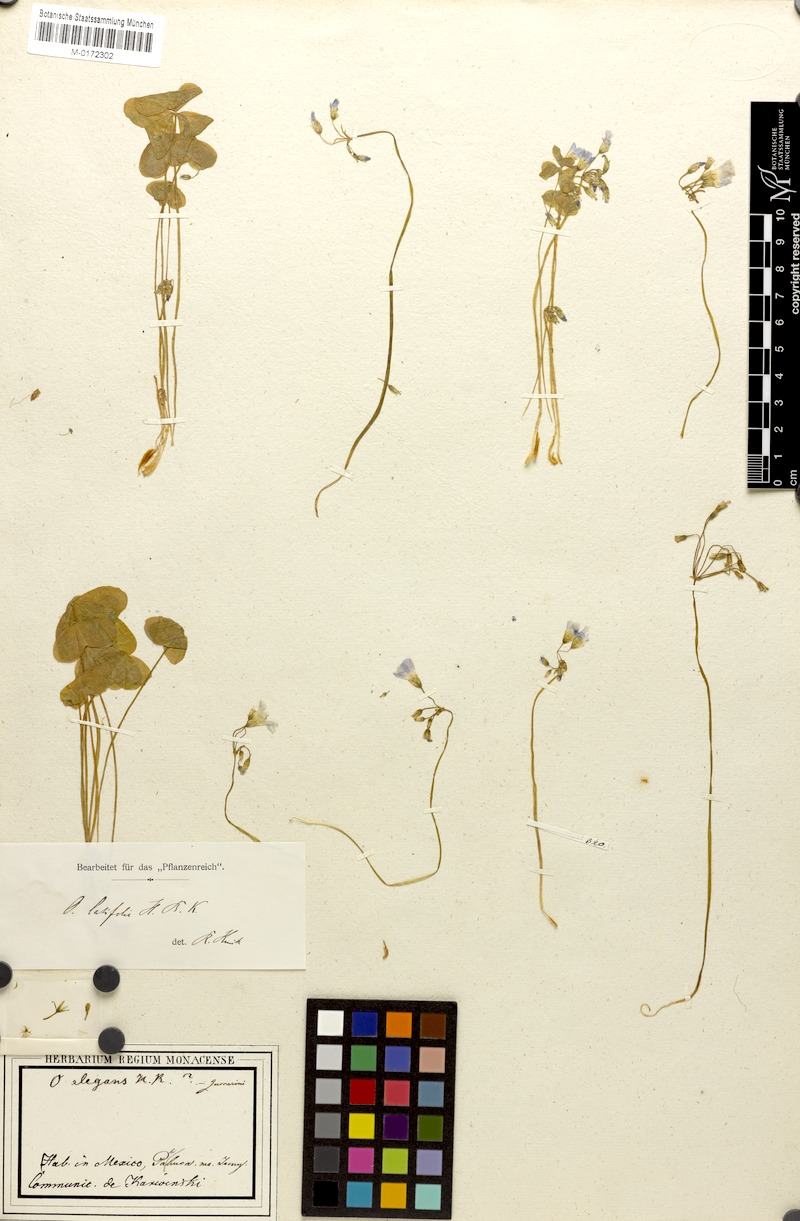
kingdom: Plantae
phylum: Tracheophyta
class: Magnoliopsida
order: Oxalidales
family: Oxalidaceae
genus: Oxalis
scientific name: Oxalis latifolia
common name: Garden pink-sorrel
